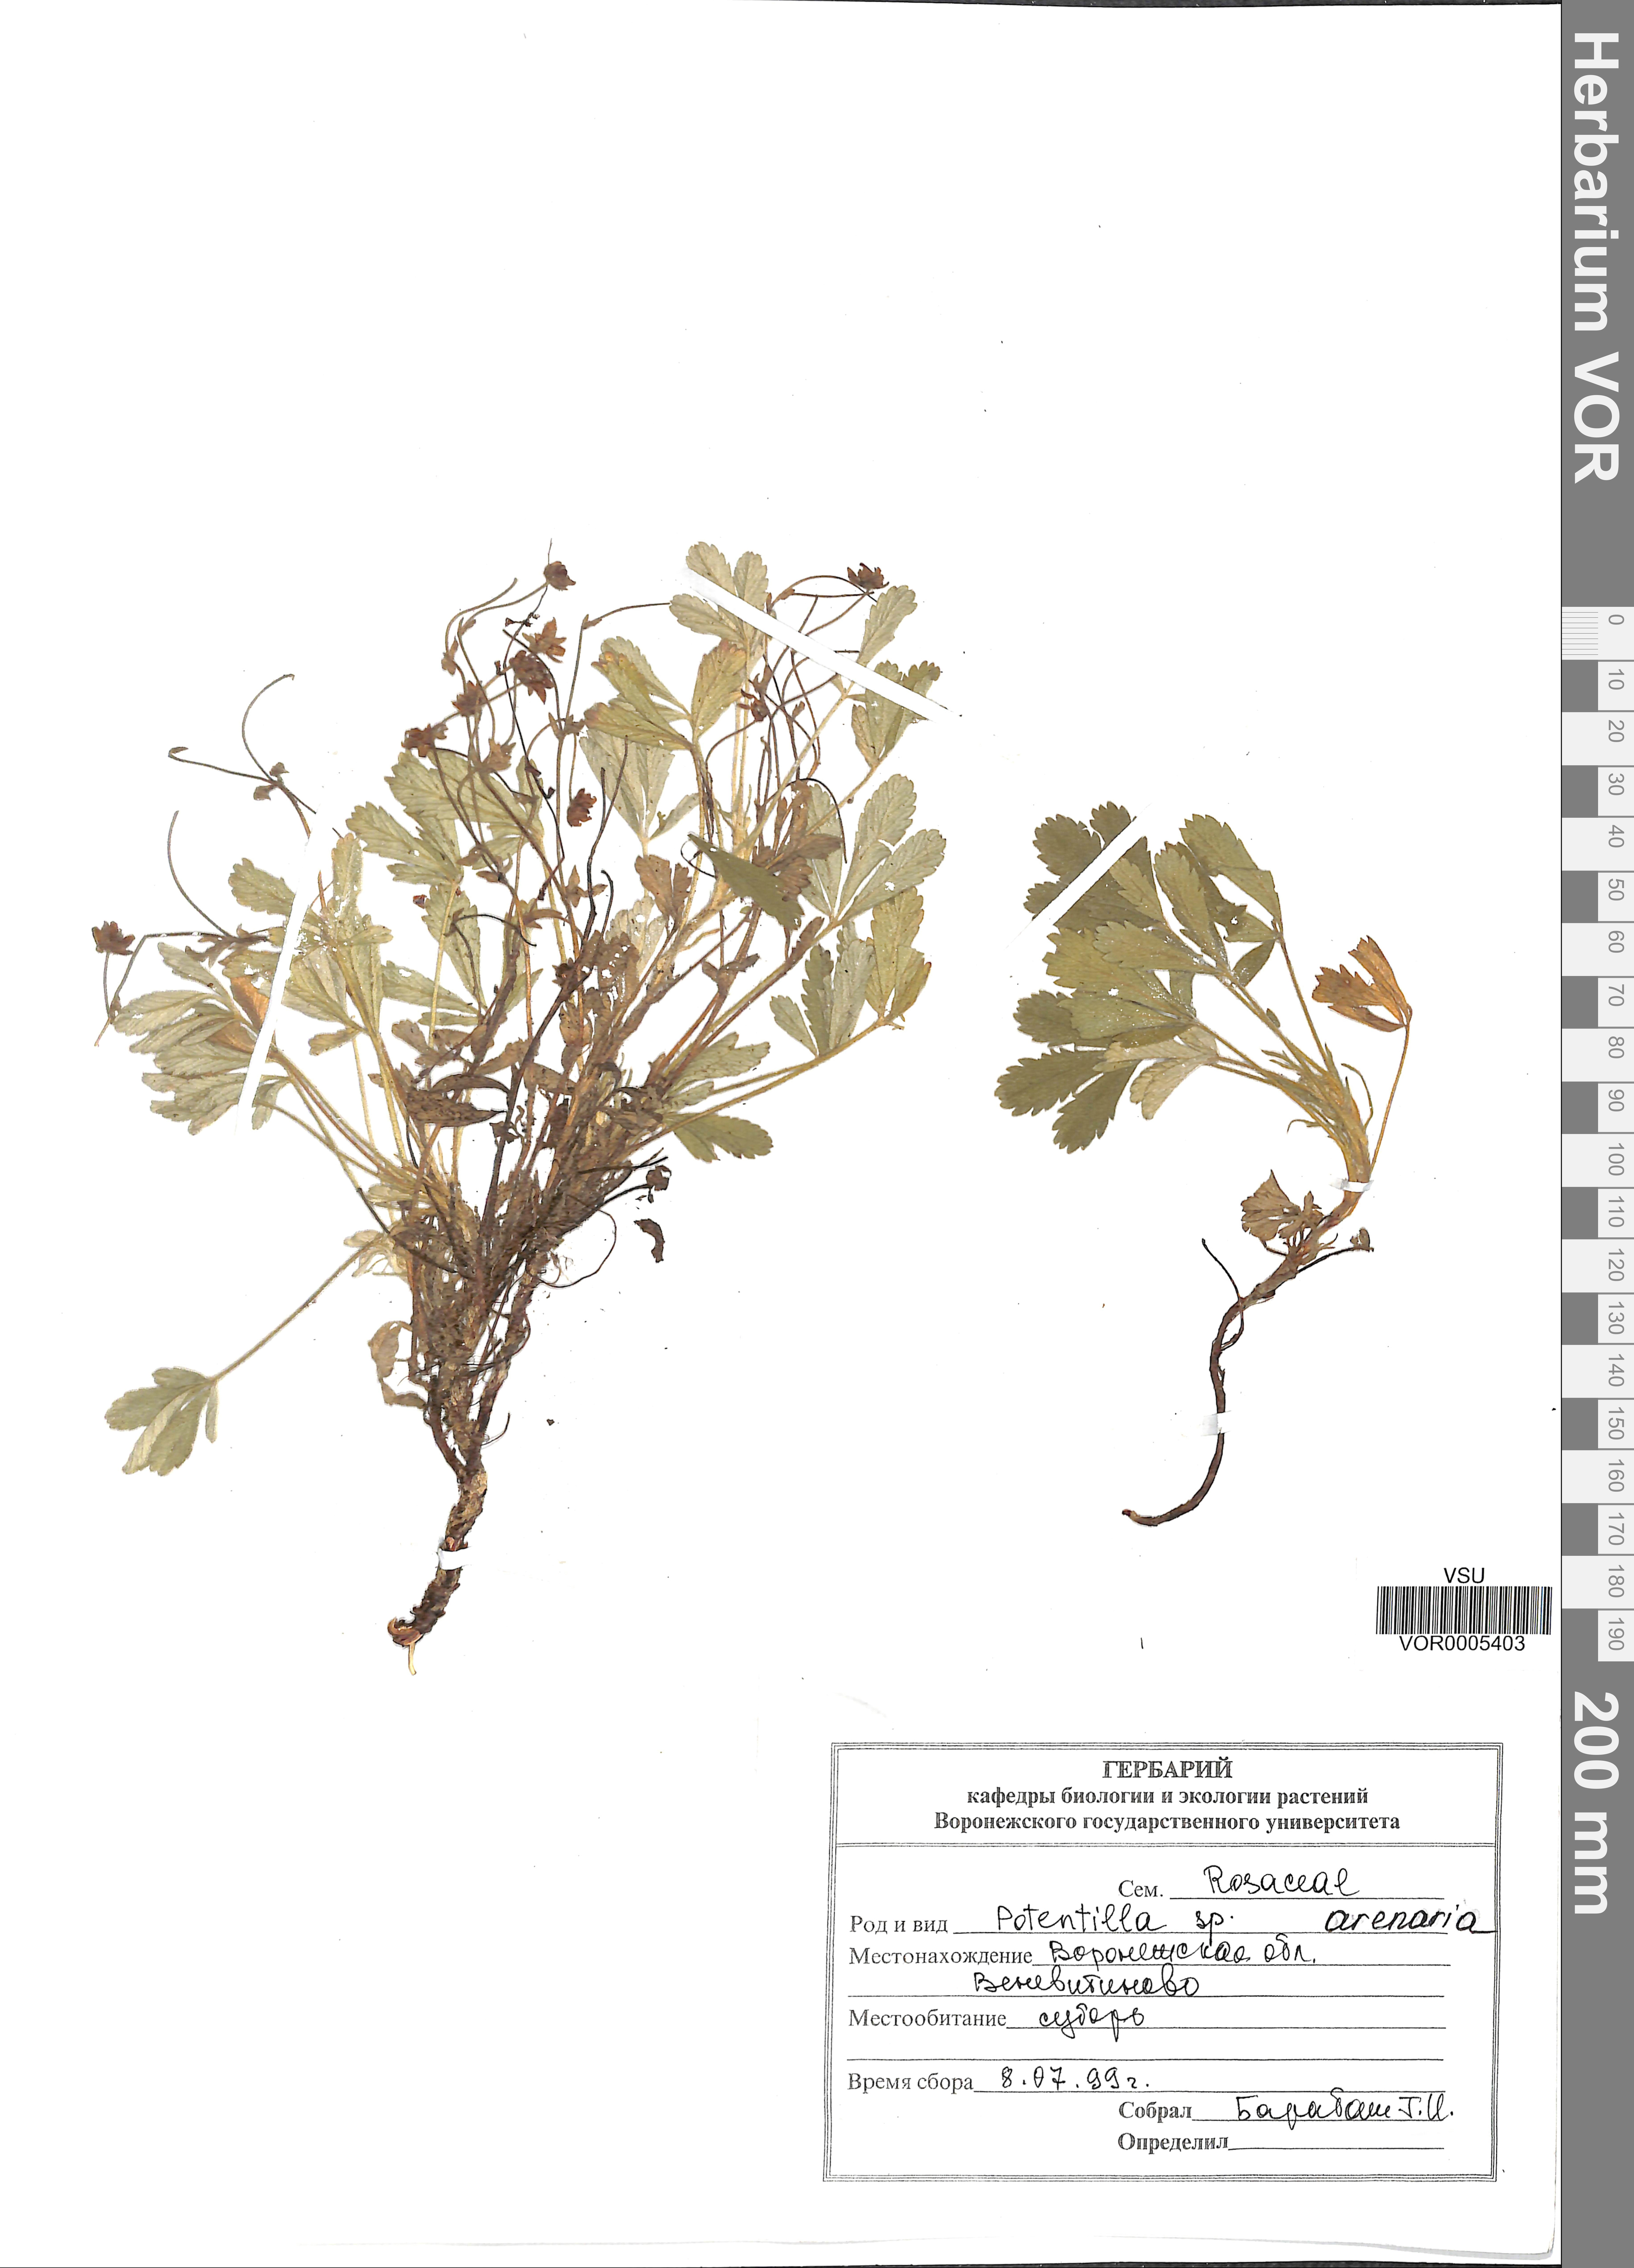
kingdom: Plantae
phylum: Tracheophyta
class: Magnoliopsida
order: Rosales
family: Rosaceae
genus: Potentilla
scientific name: Potentilla cinerea
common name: Ashy cinquefoil
